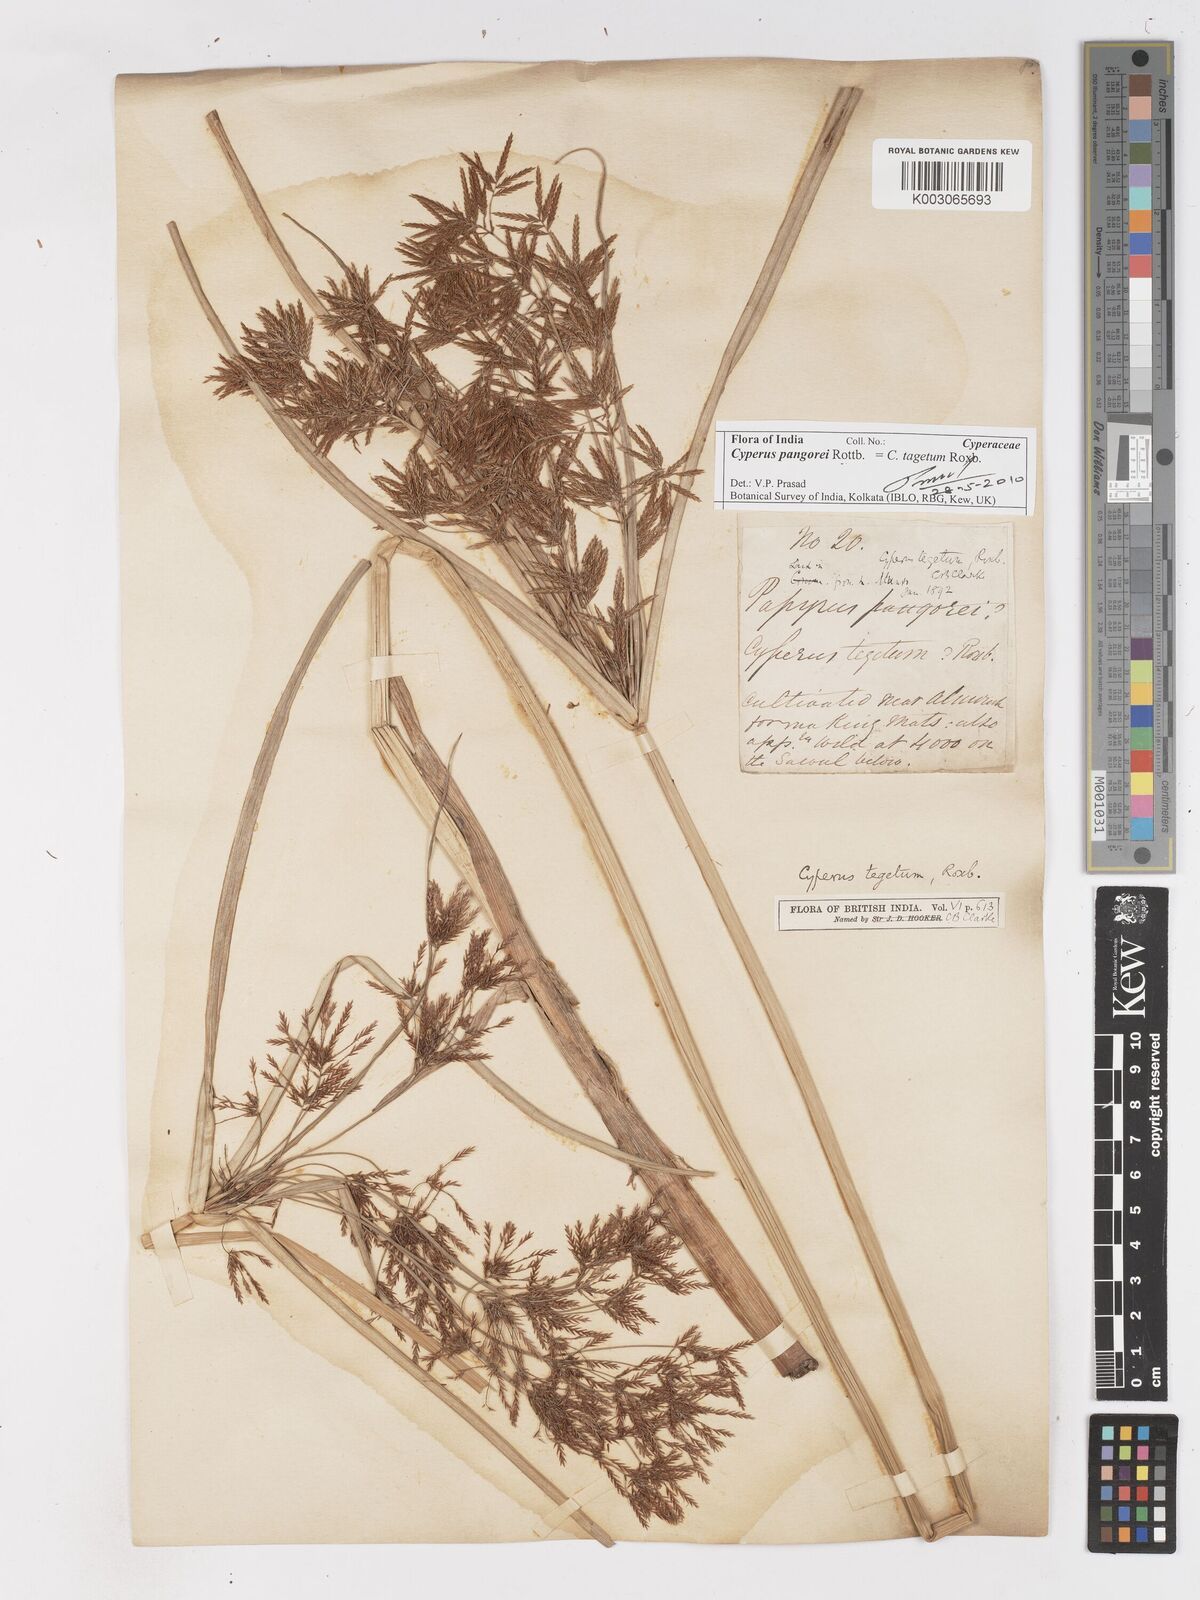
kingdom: Plantae
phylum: Tracheophyta
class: Liliopsida
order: Poales
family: Cyperaceae
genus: Cyperus
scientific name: Cyperus pangorei
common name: Mat sedge
